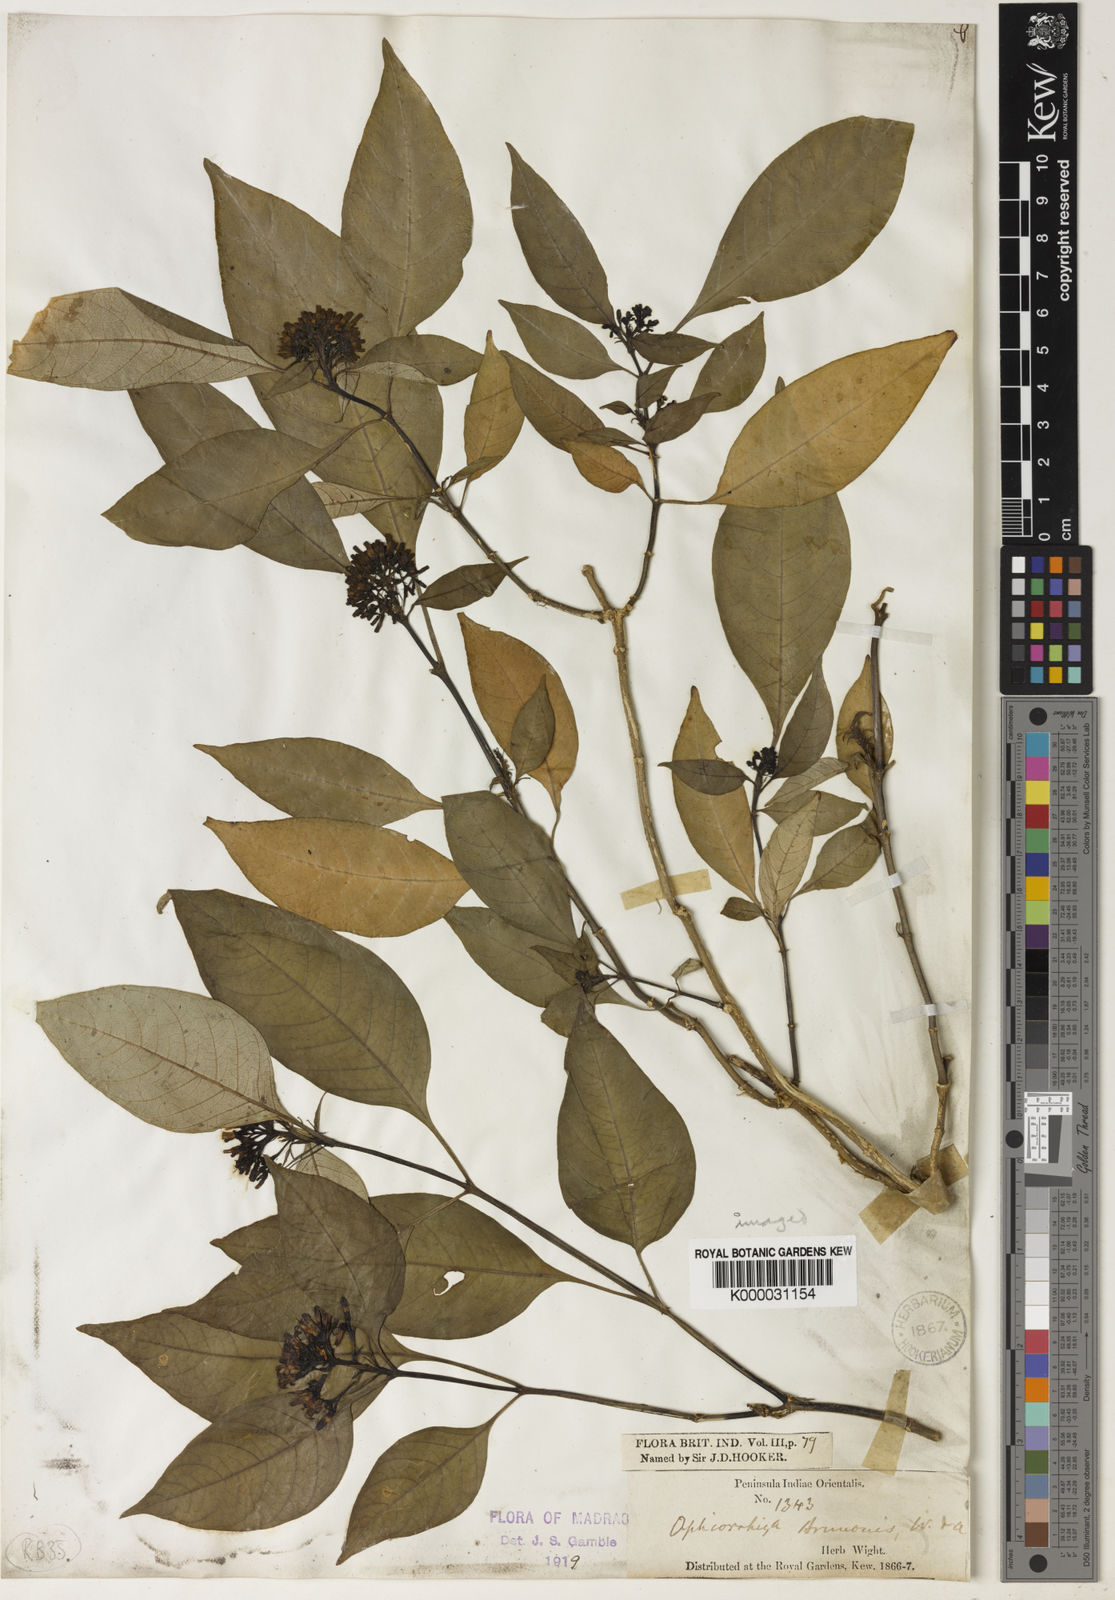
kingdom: Plantae
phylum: Tracheophyta
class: Magnoliopsida
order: Gentianales
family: Rubiaceae
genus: Ophiorrhiza
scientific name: Ophiorrhiza brunonis
